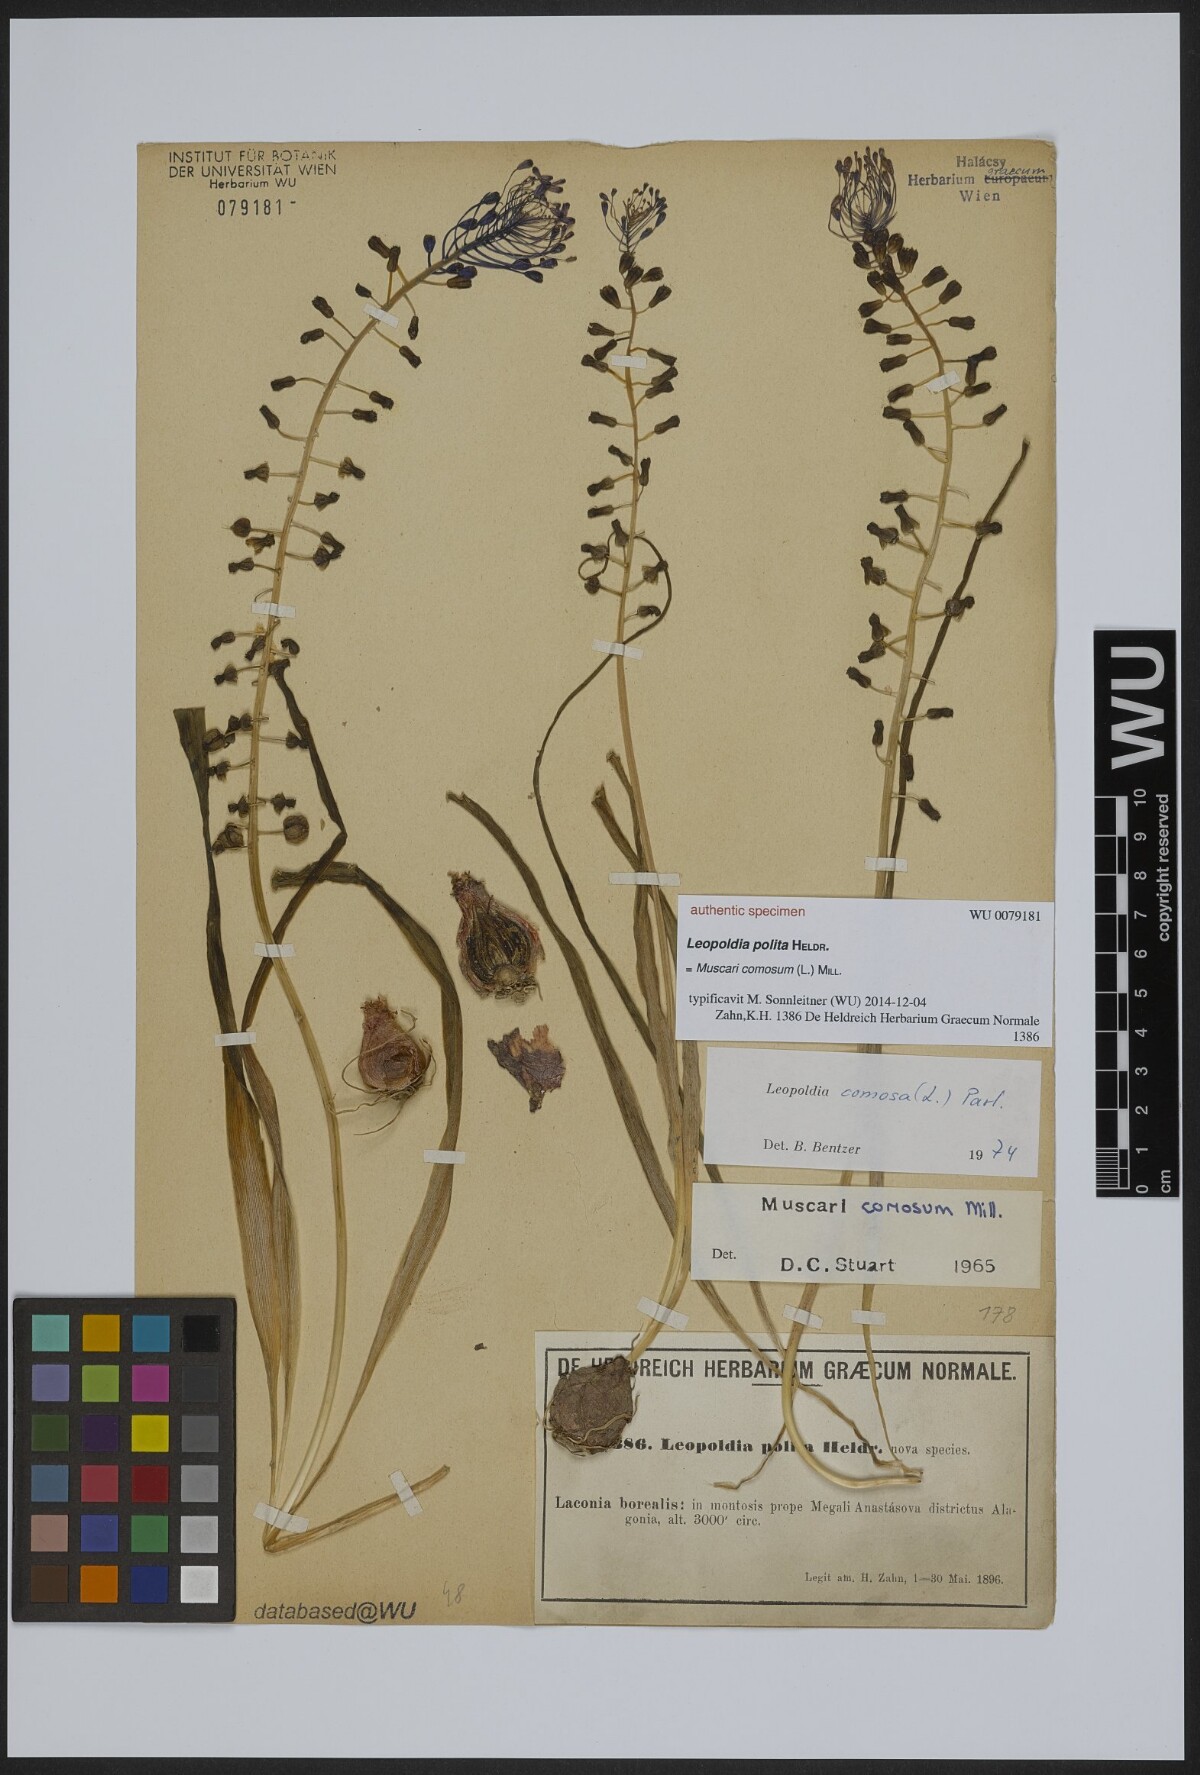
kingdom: Animalia
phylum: Mollusca
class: Cephalopoda
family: Neocomitidae
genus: Leopoldia
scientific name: Leopoldia
